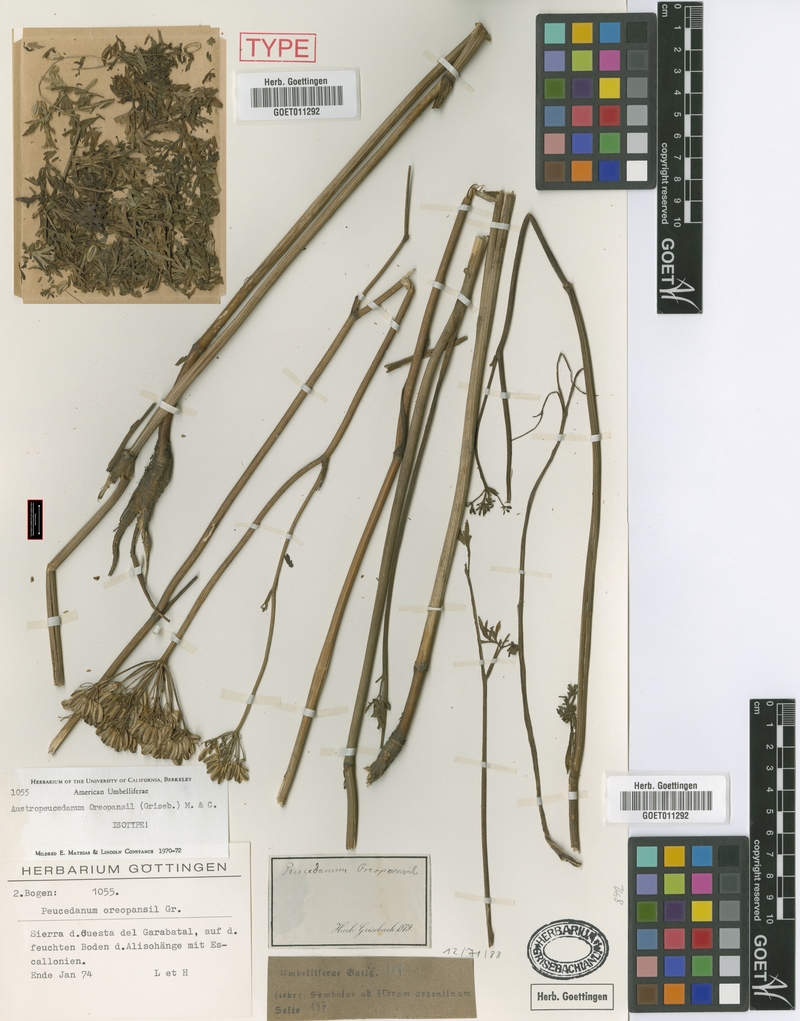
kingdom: Plantae
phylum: Tracheophyta
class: Magnoliopsida
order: Apiales
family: Apiaceae
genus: Austropeucedanum
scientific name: Austropeucedanum oreopansii
